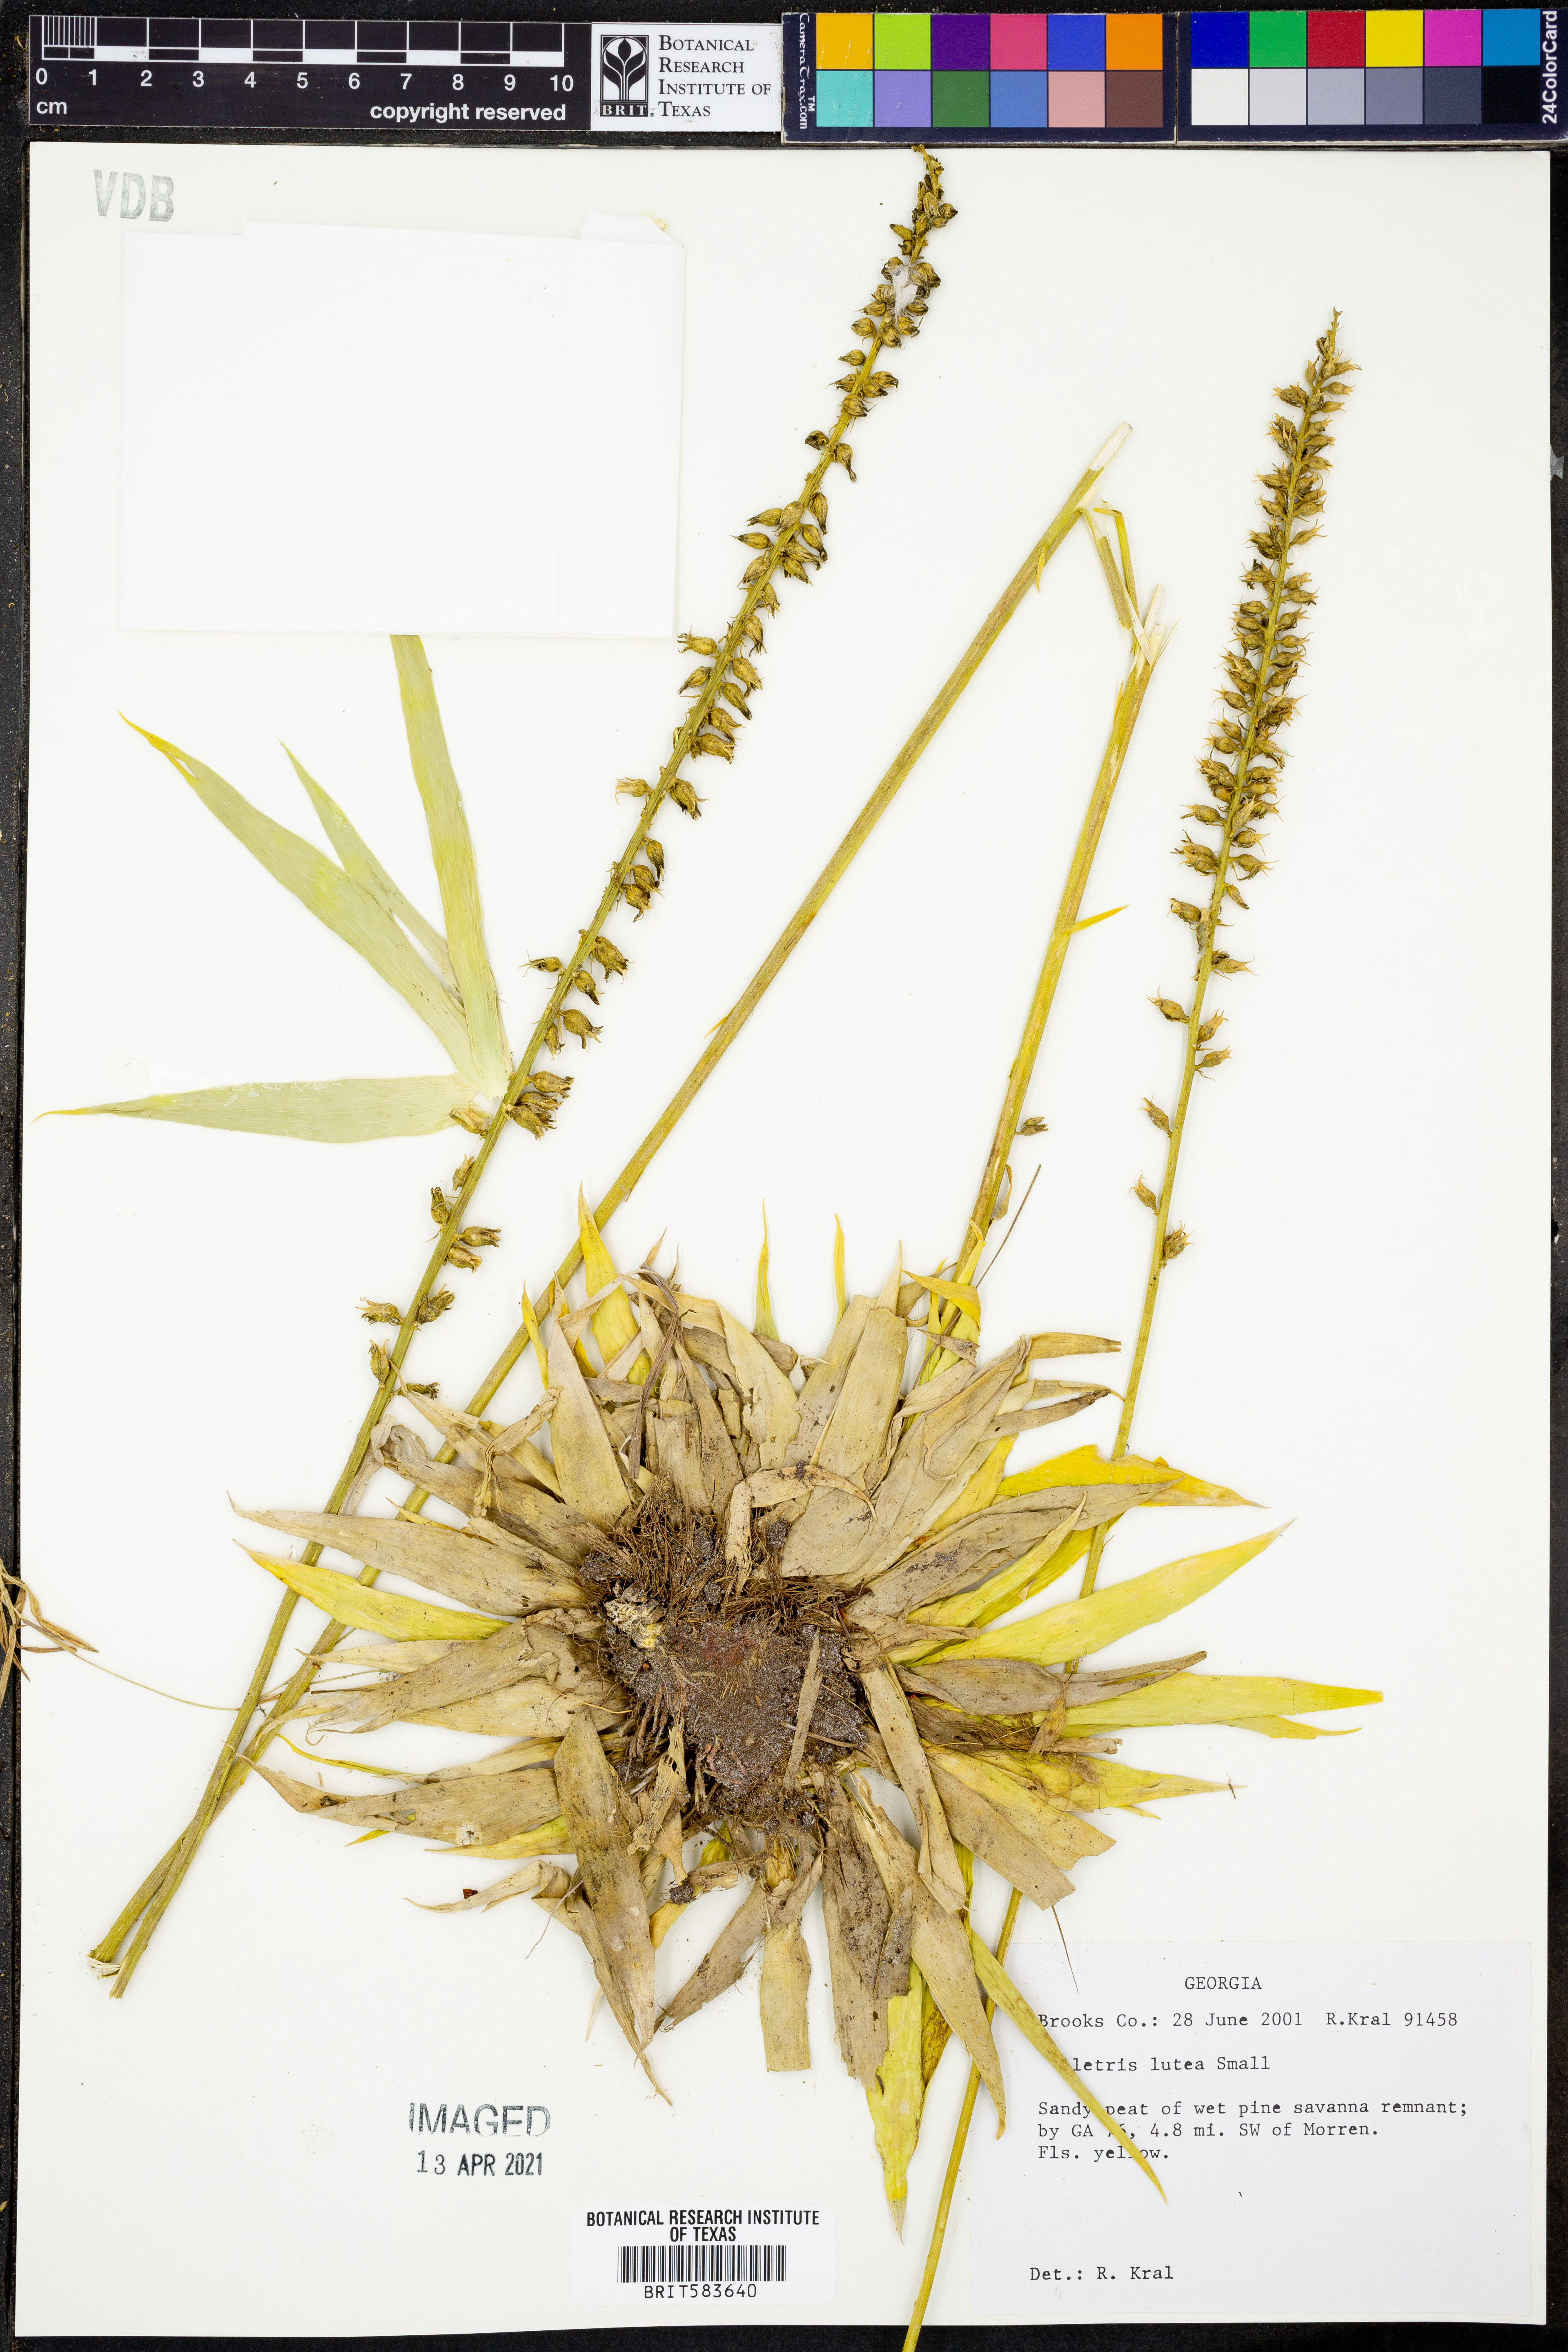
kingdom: Plantae
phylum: Tracheophyta
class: Liliopsida
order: Dioscoreales
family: Nartheciaceae
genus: Aletris
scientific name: Aletris lutea
